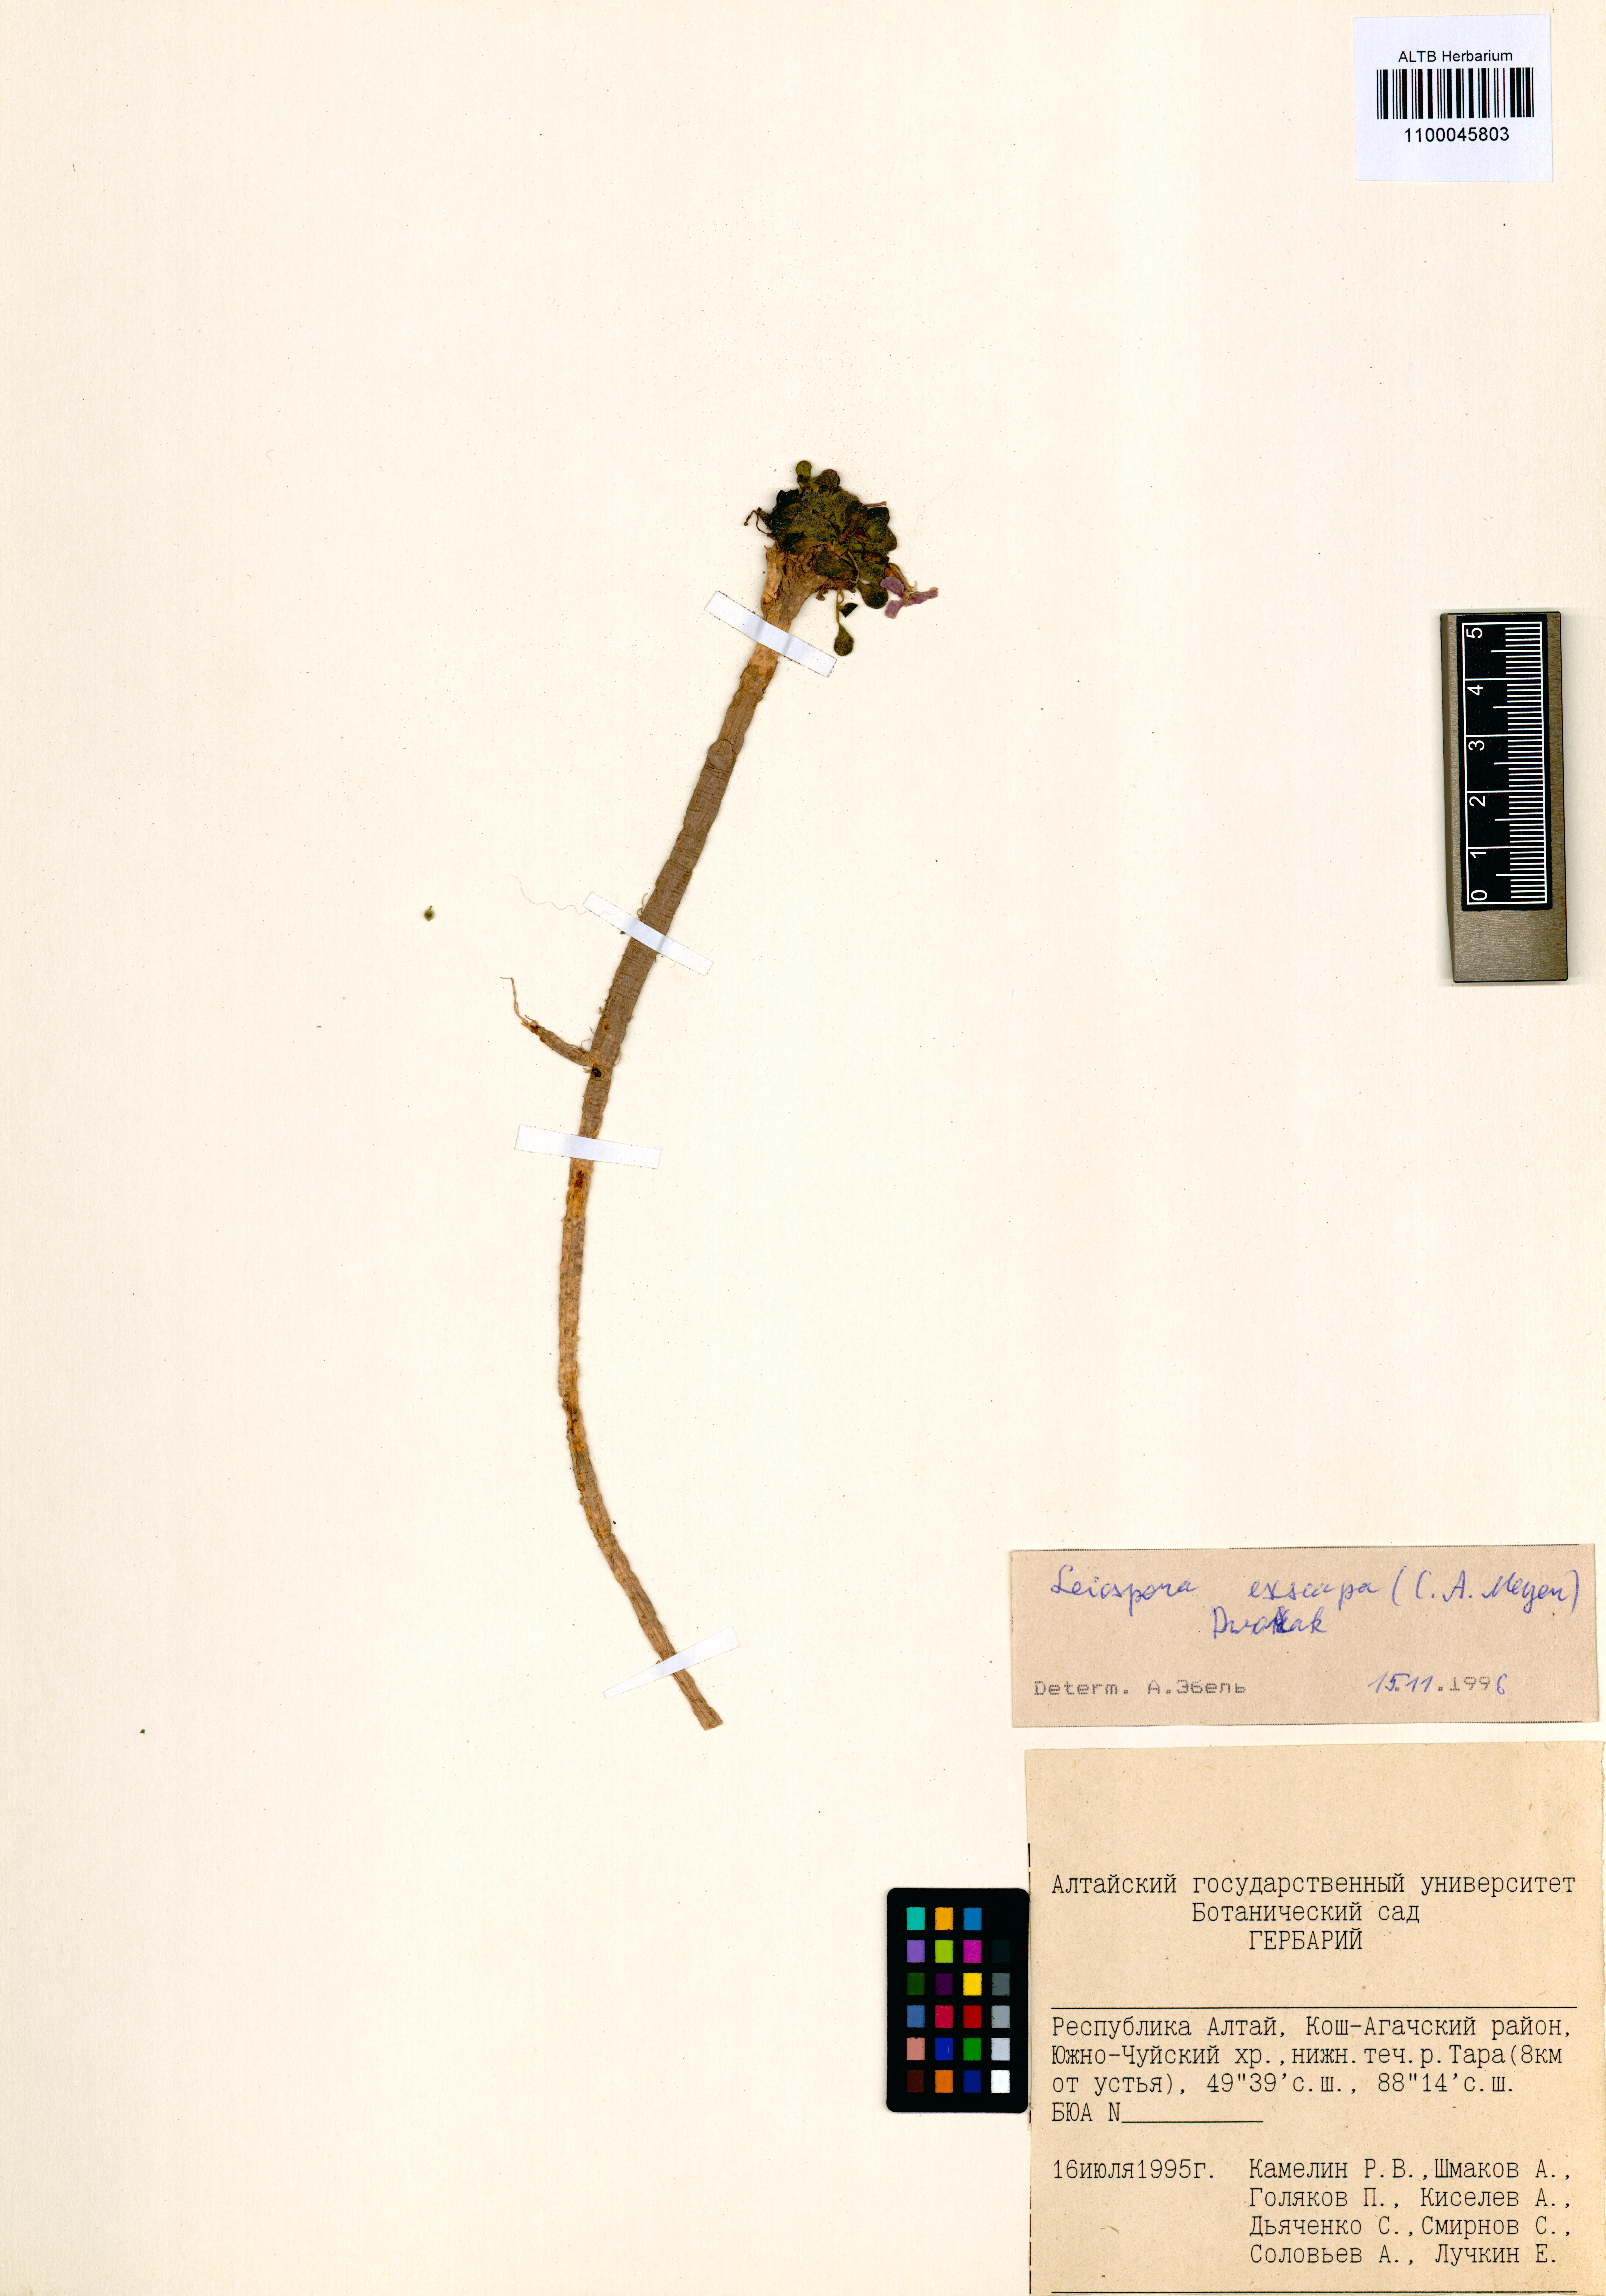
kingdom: Plantae
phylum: Tracheophyta
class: Magnoliopsida
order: Brassicales
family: Brassicaceae
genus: Leiospora
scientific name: Leiospora exscapa
